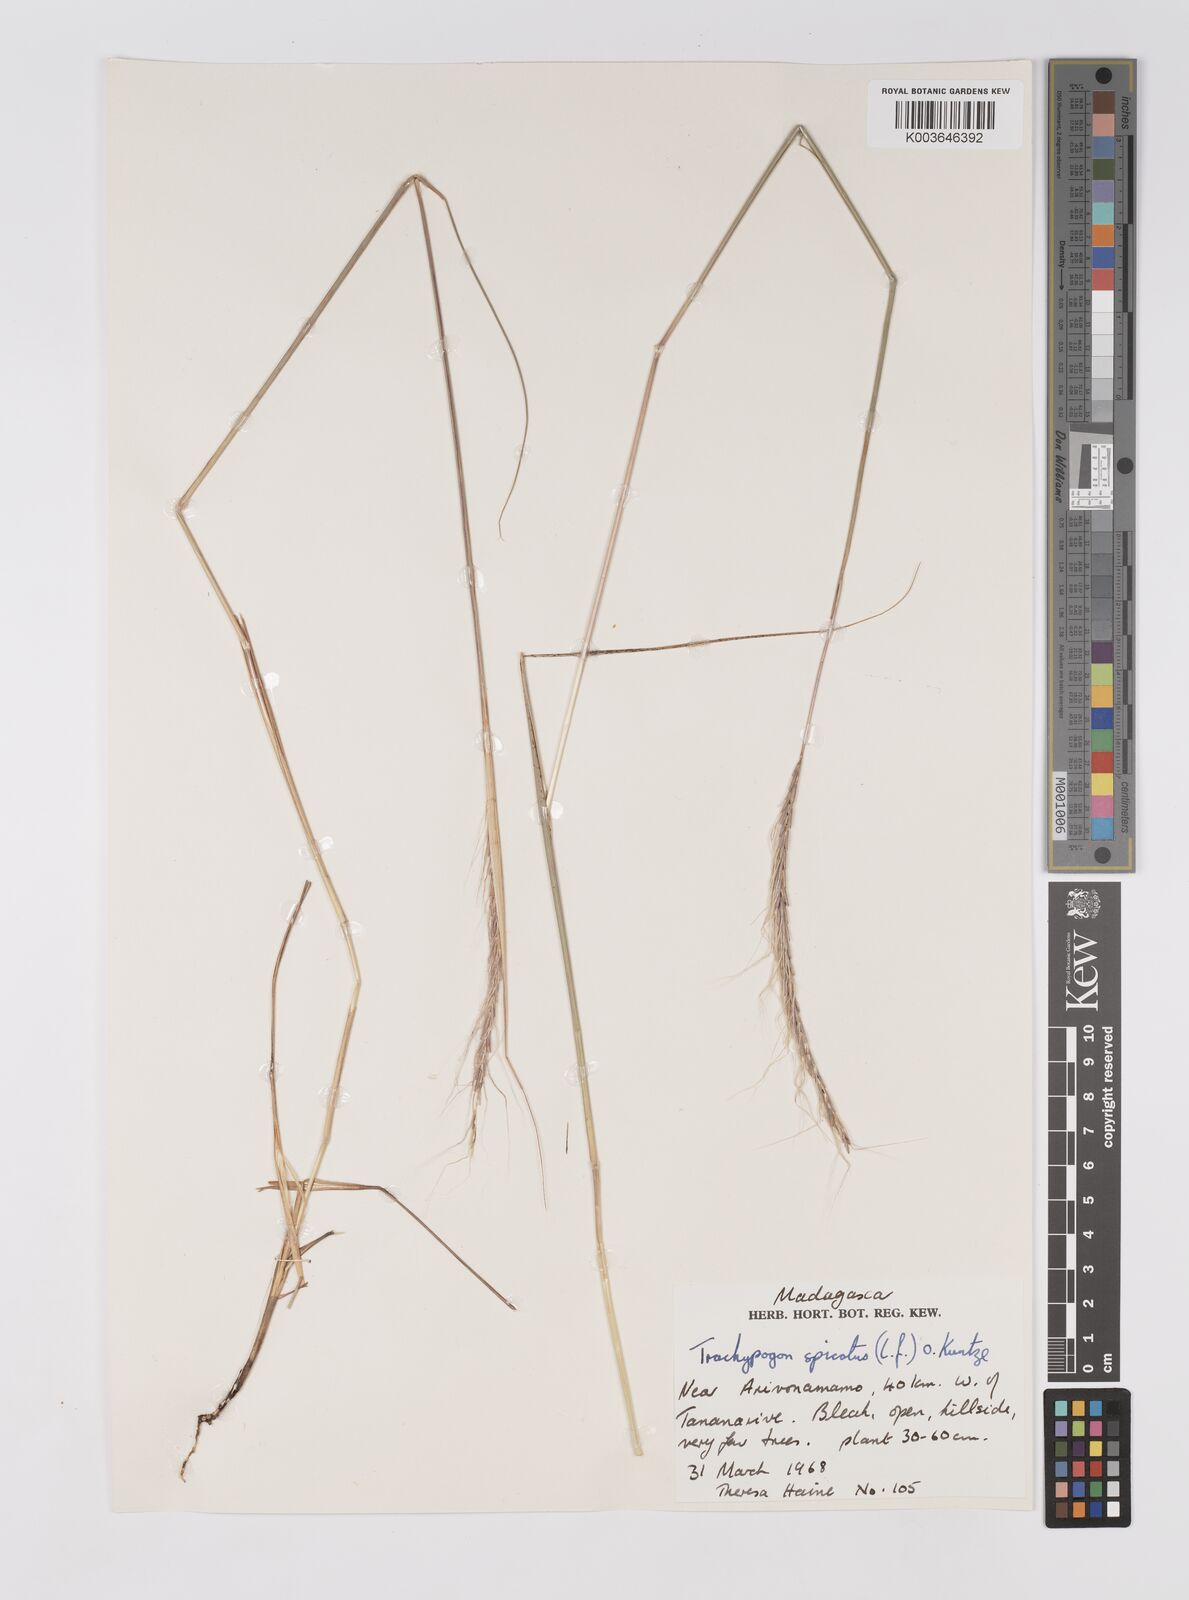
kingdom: Plantae
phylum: Tracheophyta
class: Liliopsida
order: Poales
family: Poaceae
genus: Trachypogon
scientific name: Trachypogon spicatus
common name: Crinkle-awn
